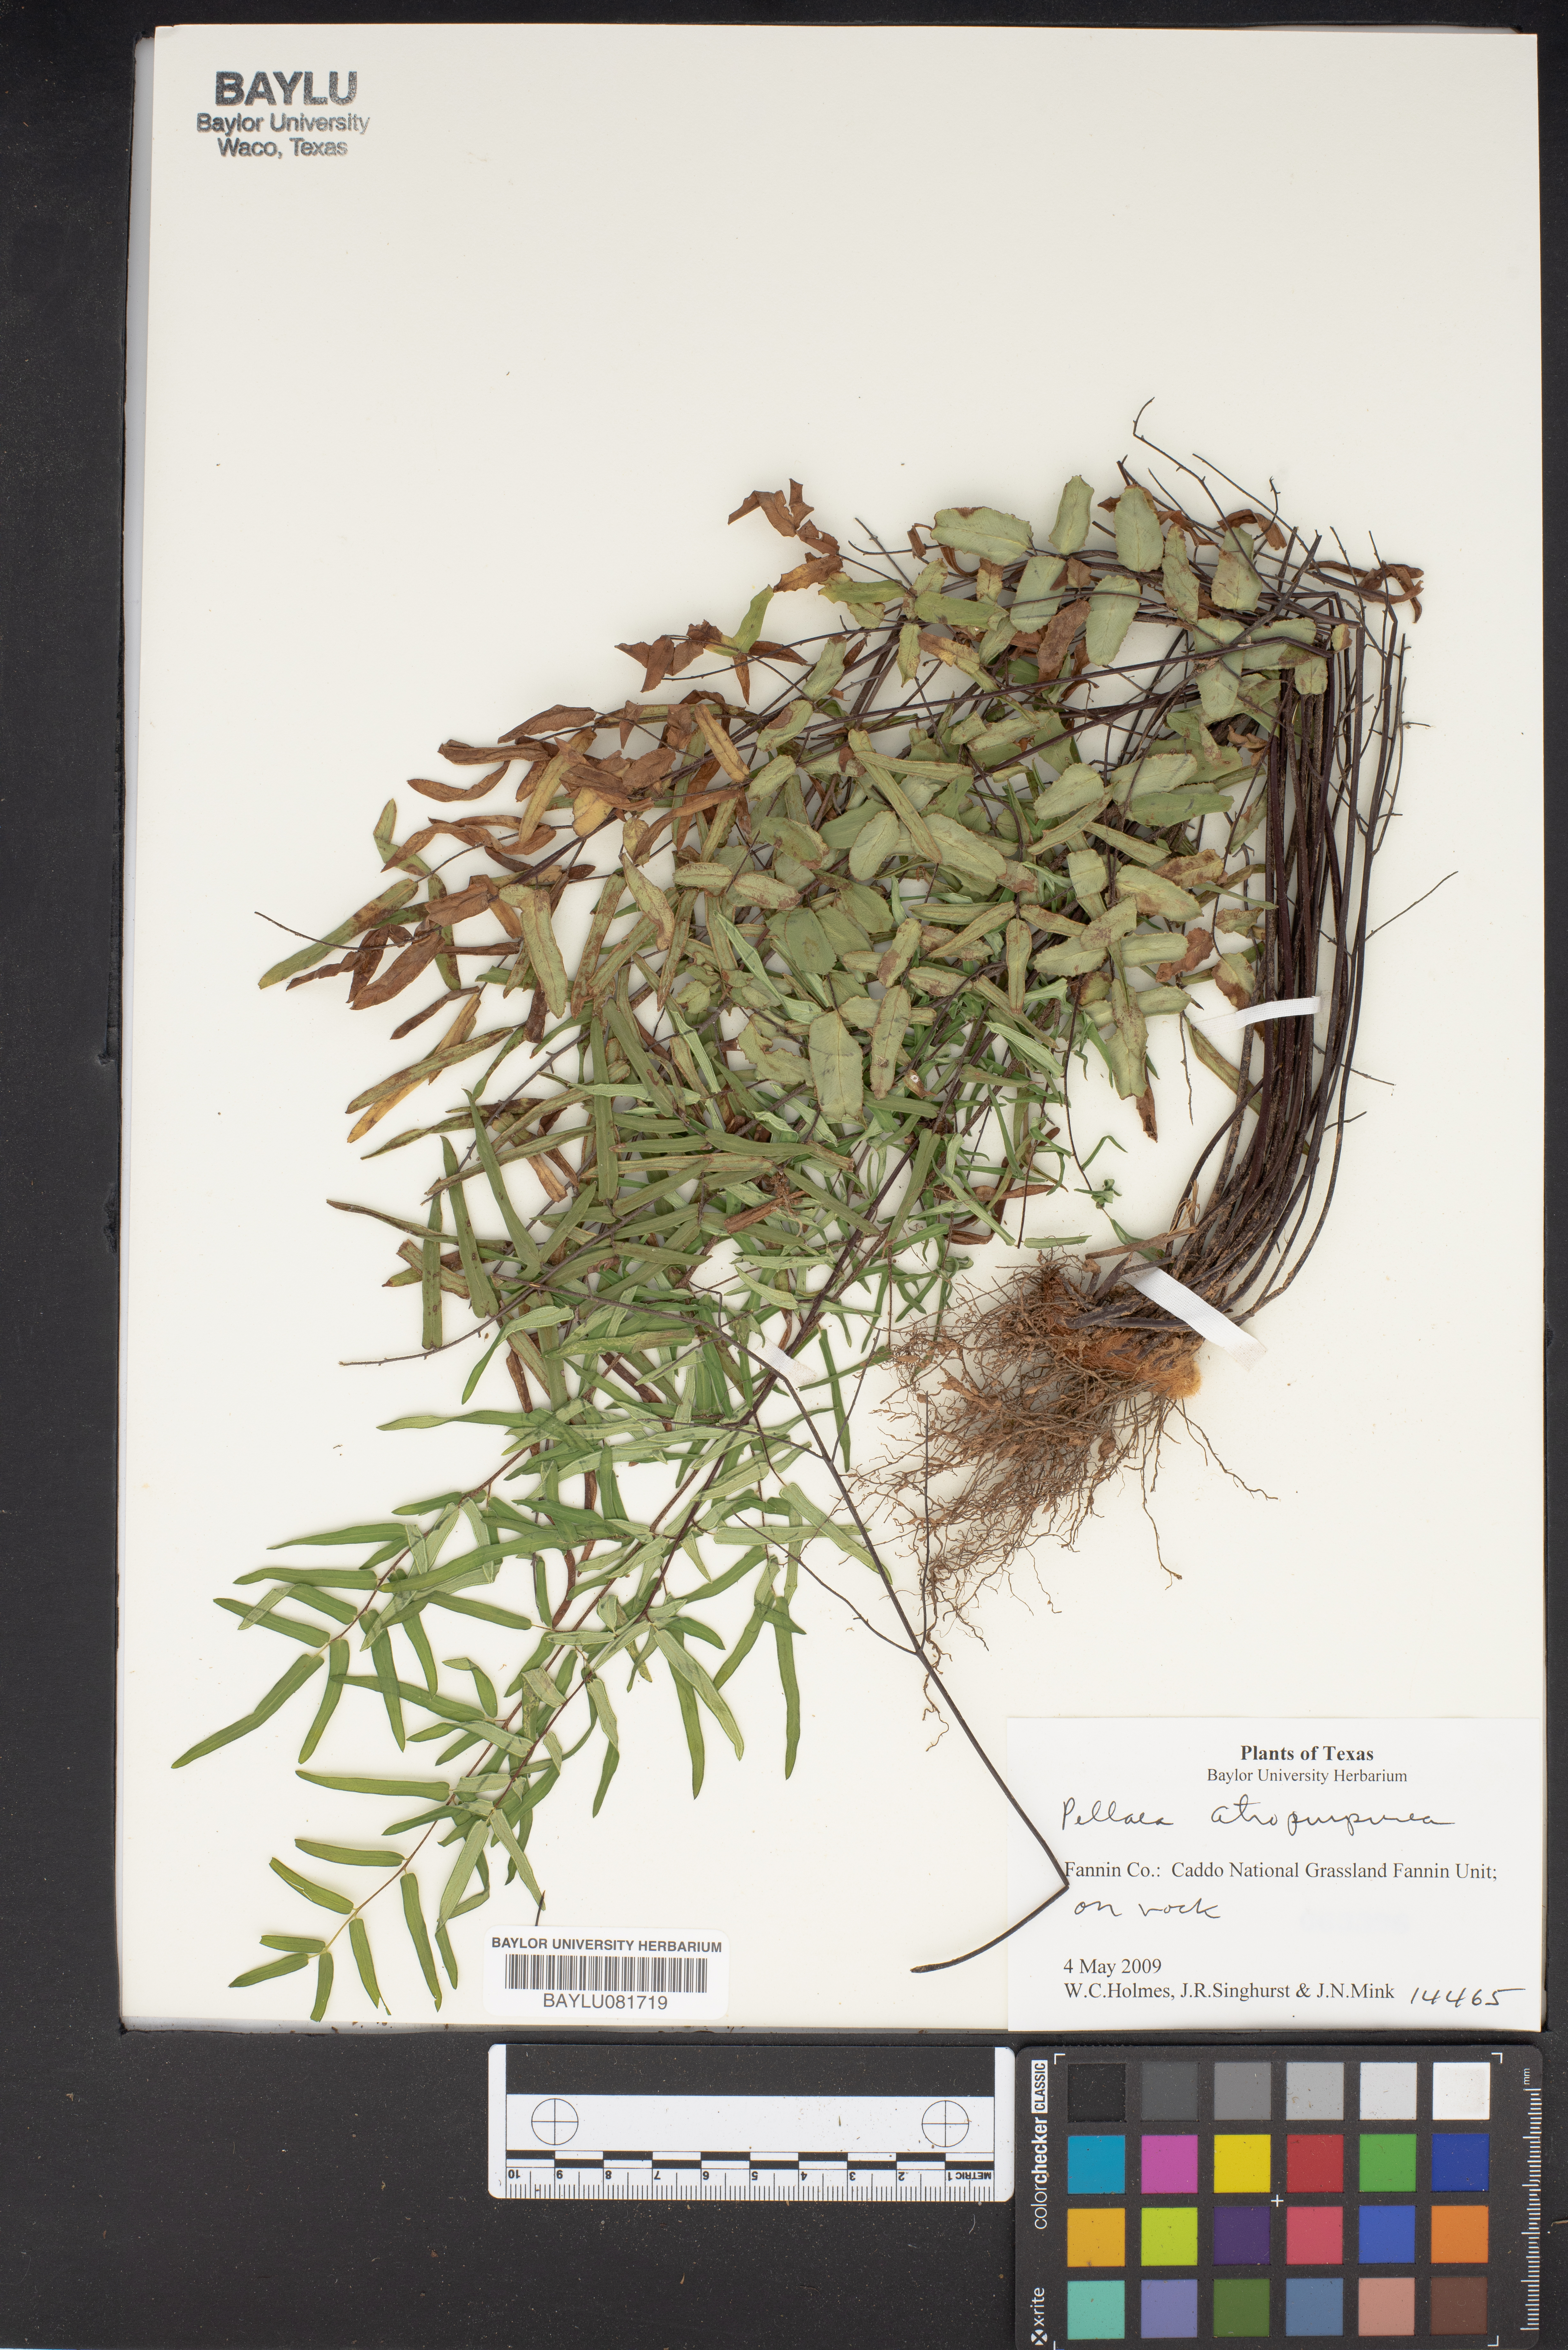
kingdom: Plantae
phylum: Tracheophyta
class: Polypodiopsida
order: Polypodiales
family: Pteridaceae
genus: Pellaea
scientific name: Pellaea atropurpurea
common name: Hairy cliffbrake
